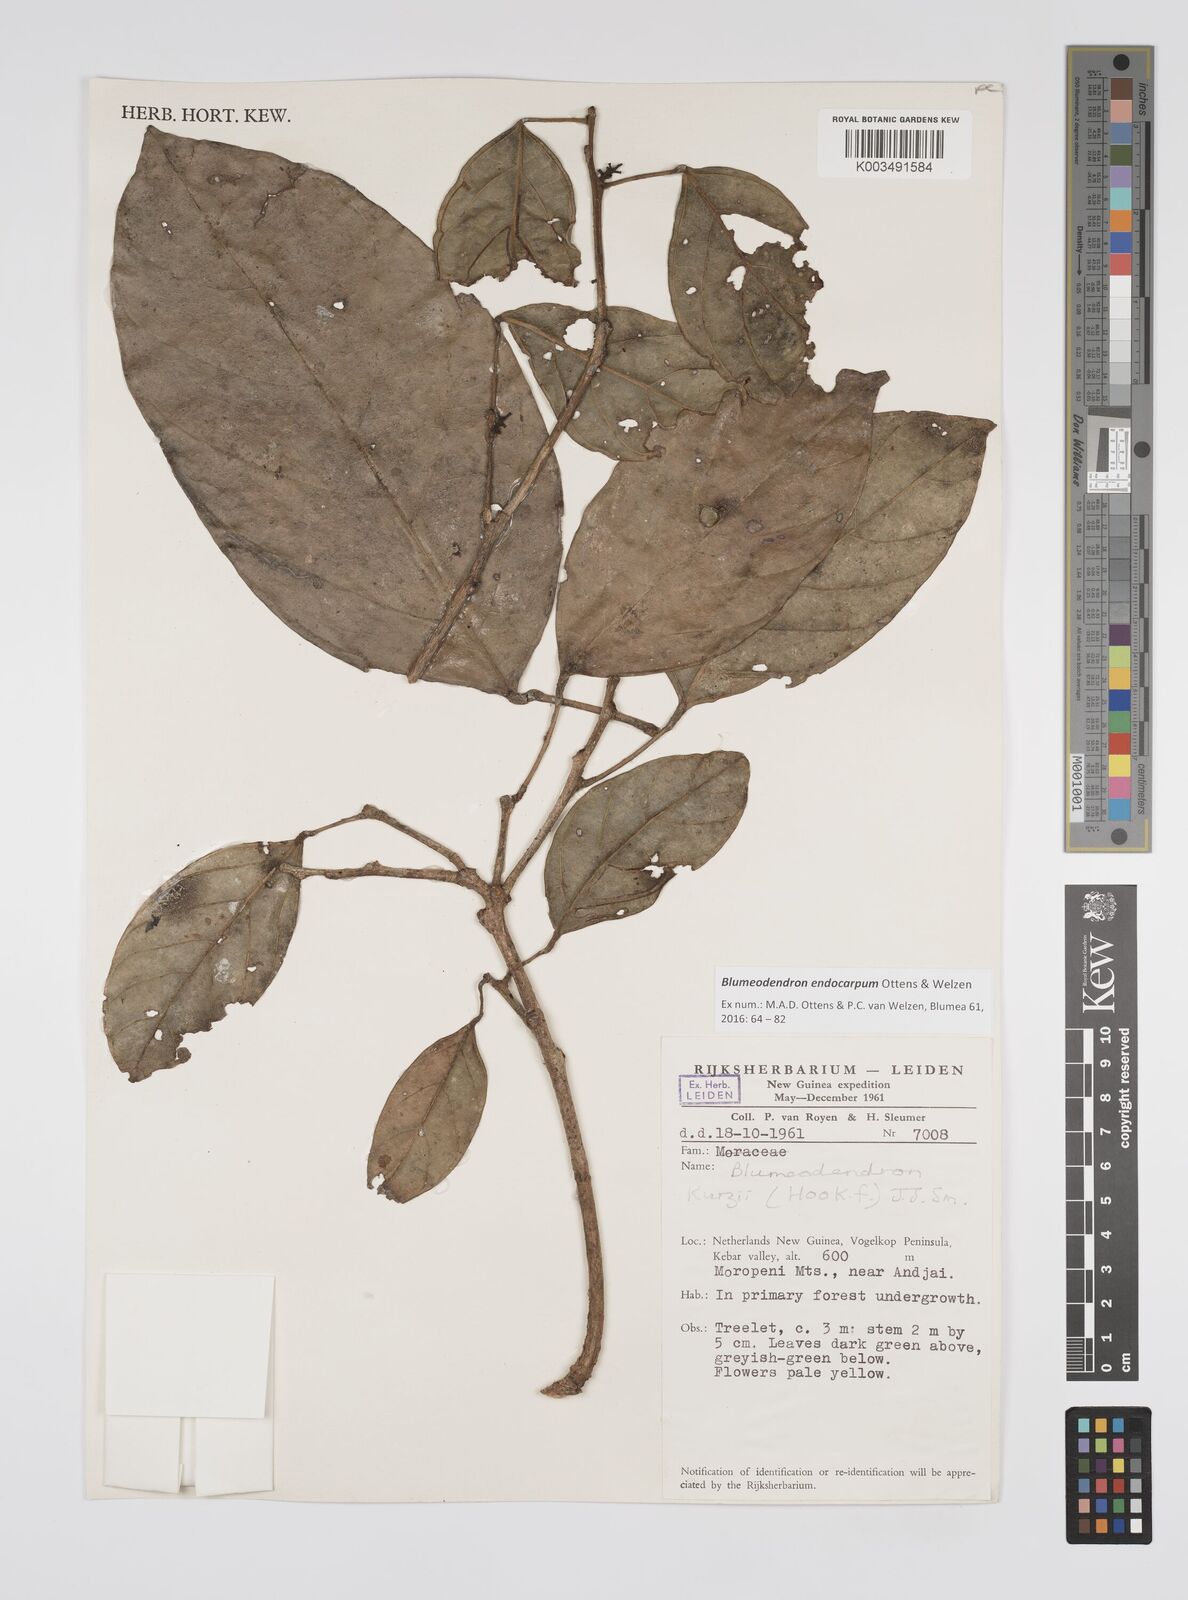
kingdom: Plantae
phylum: Tracheophyta
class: Magnoliopsida
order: Malpighiales
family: Euphorbiaceae
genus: Blumeodendron
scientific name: Blumeodendron endocarpum
